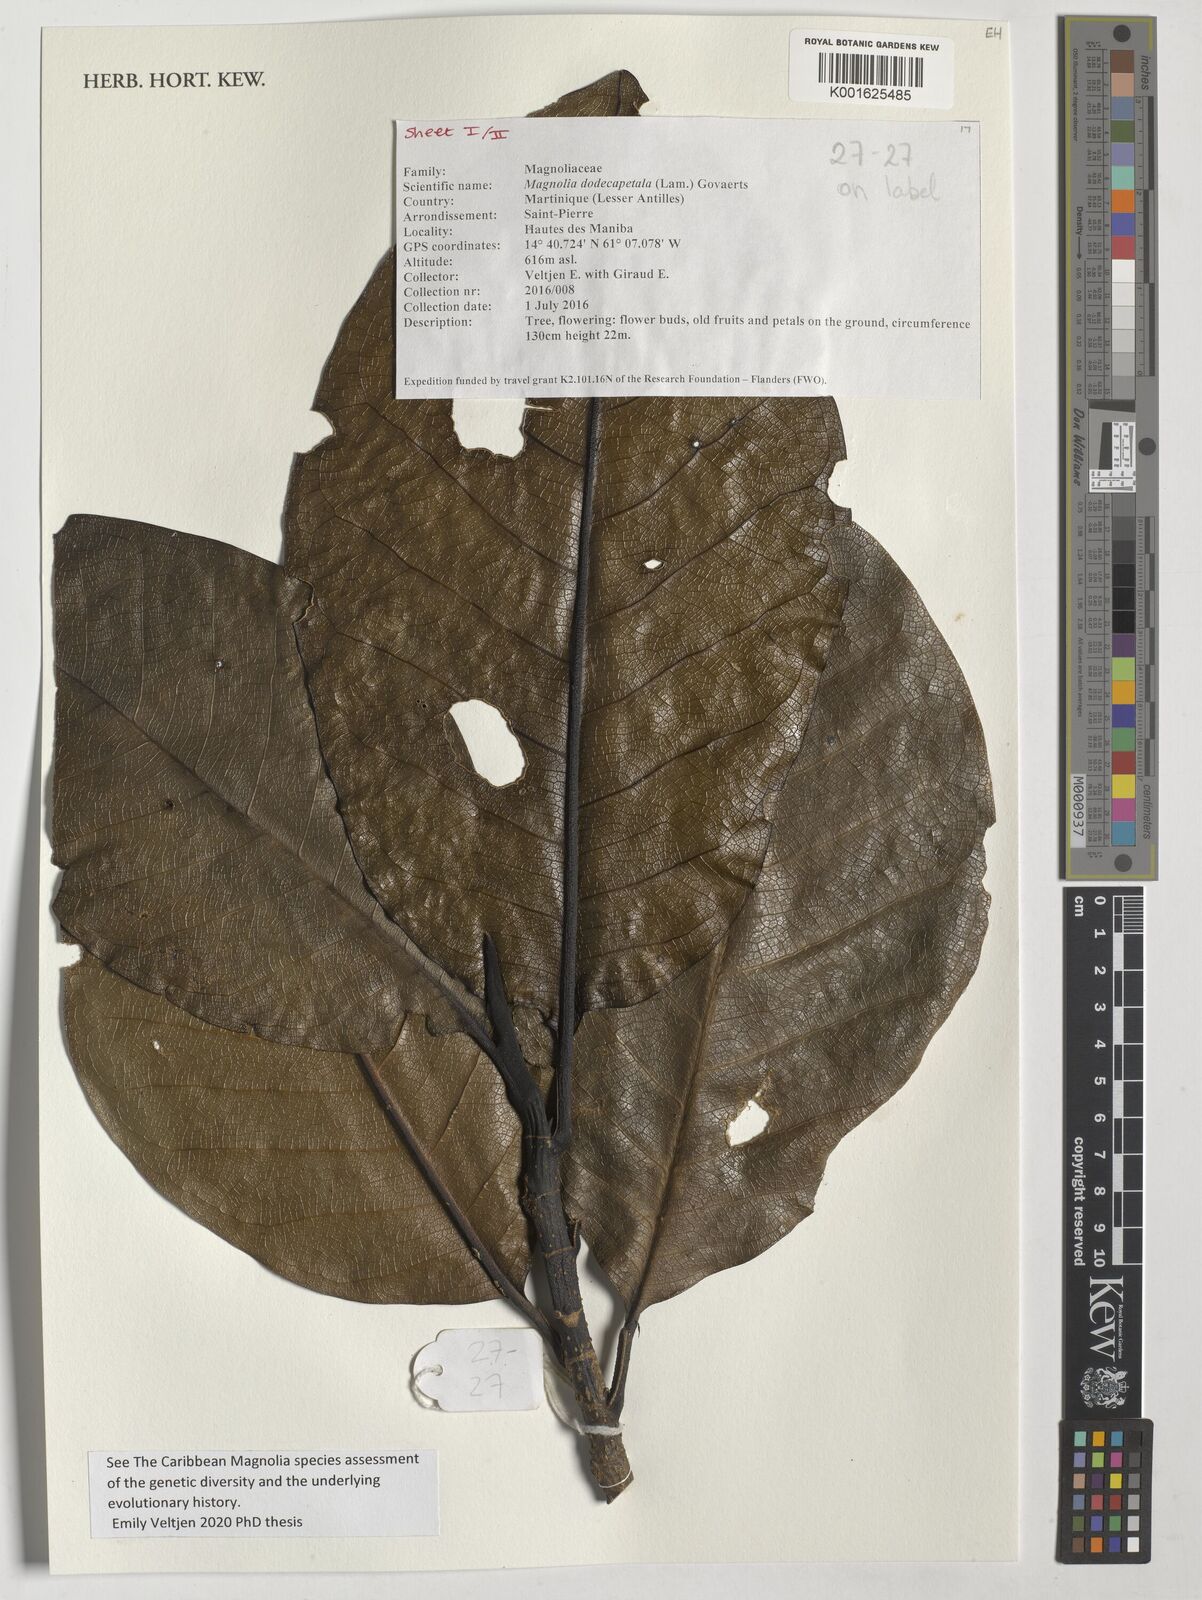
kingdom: Plantae
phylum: Tracheophyta
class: Magnoliopsida
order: Magnoliales
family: Magnoliaceae
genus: Magnolia
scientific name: Magnolia dodecapetala
